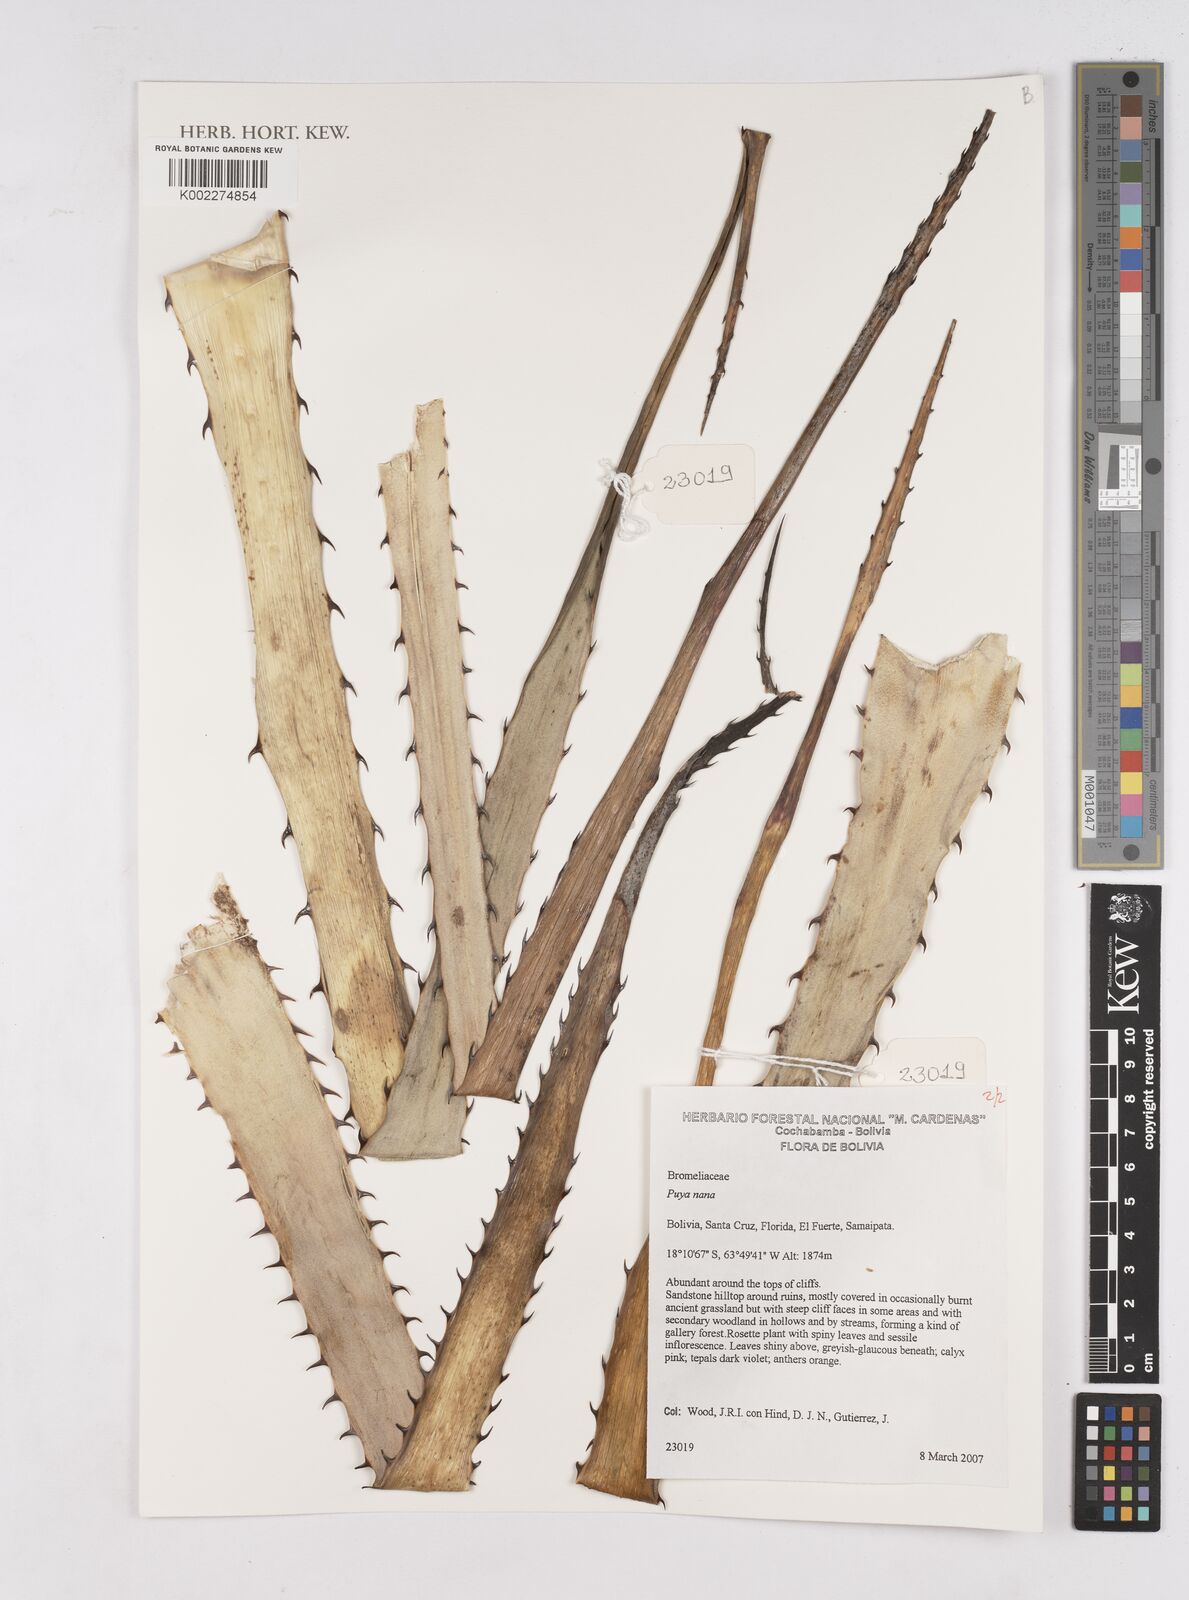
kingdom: Plantae
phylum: Tracheophyta
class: Liliopsida
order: Poales
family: Bromeliaceae
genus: Puya
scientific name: Puya nana
